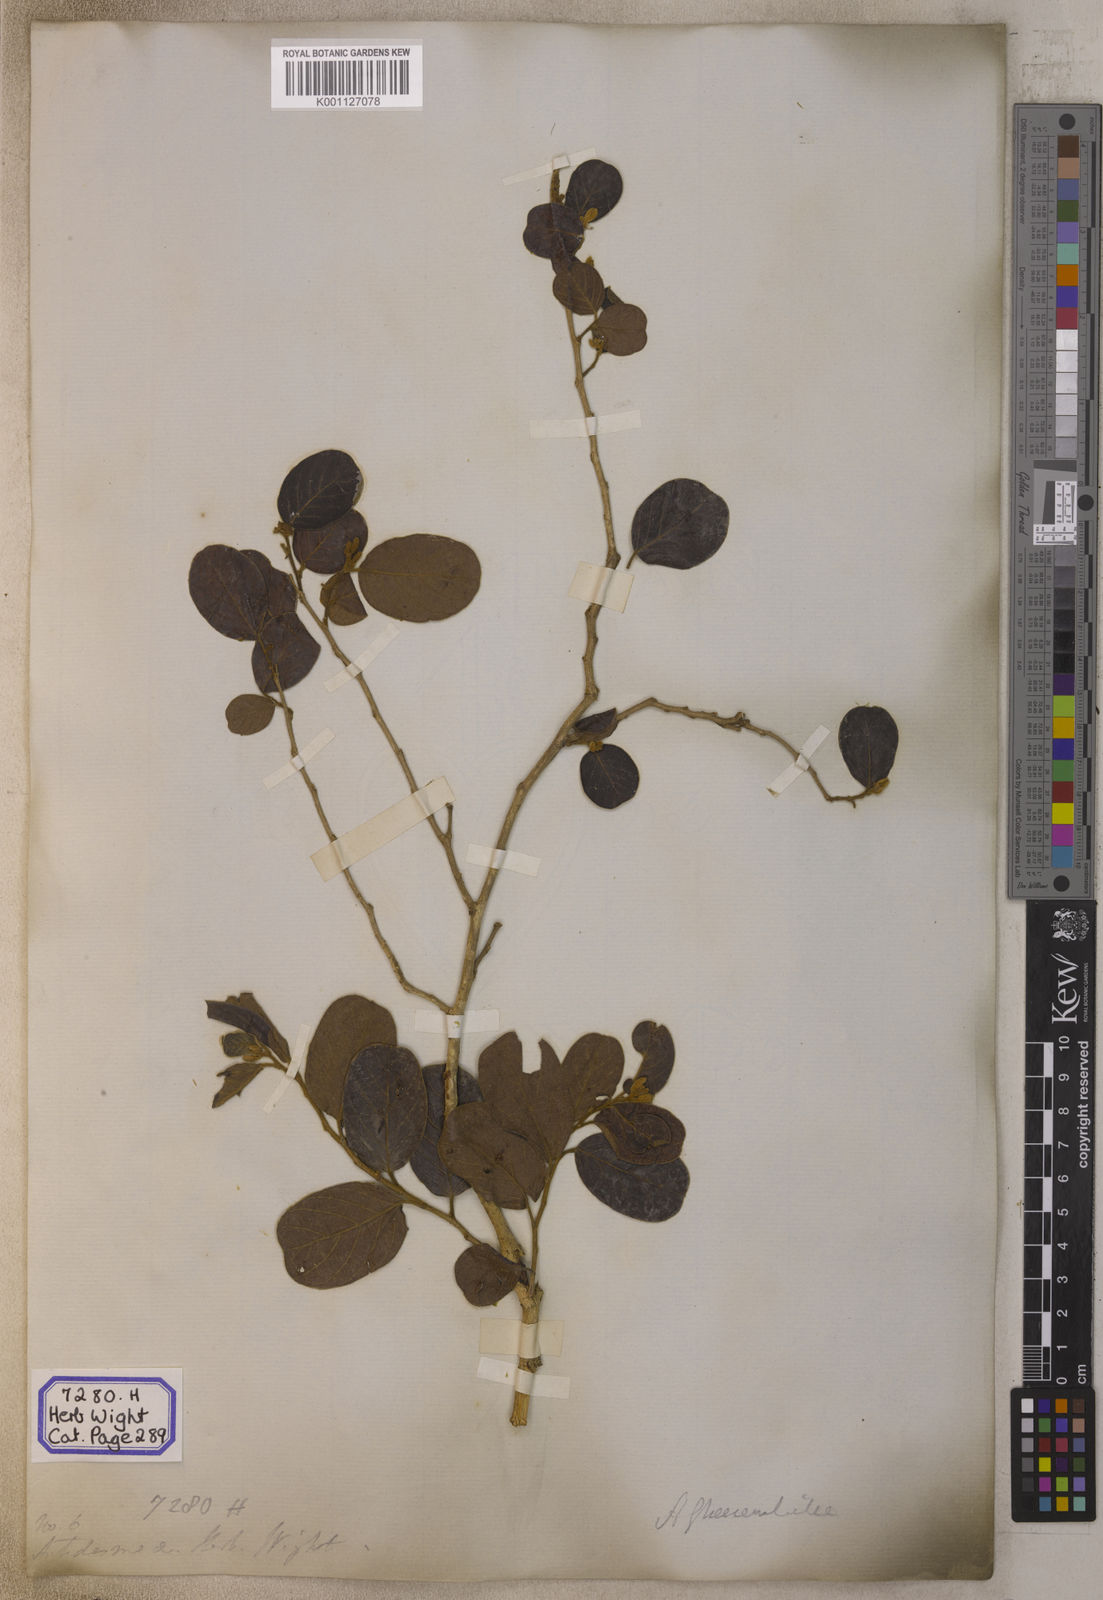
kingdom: Plantae
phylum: Tracheophyta
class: Magnoliopsida
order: Malpighiales
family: Phyllanthaceae
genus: Antidesma
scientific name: Antidesma
